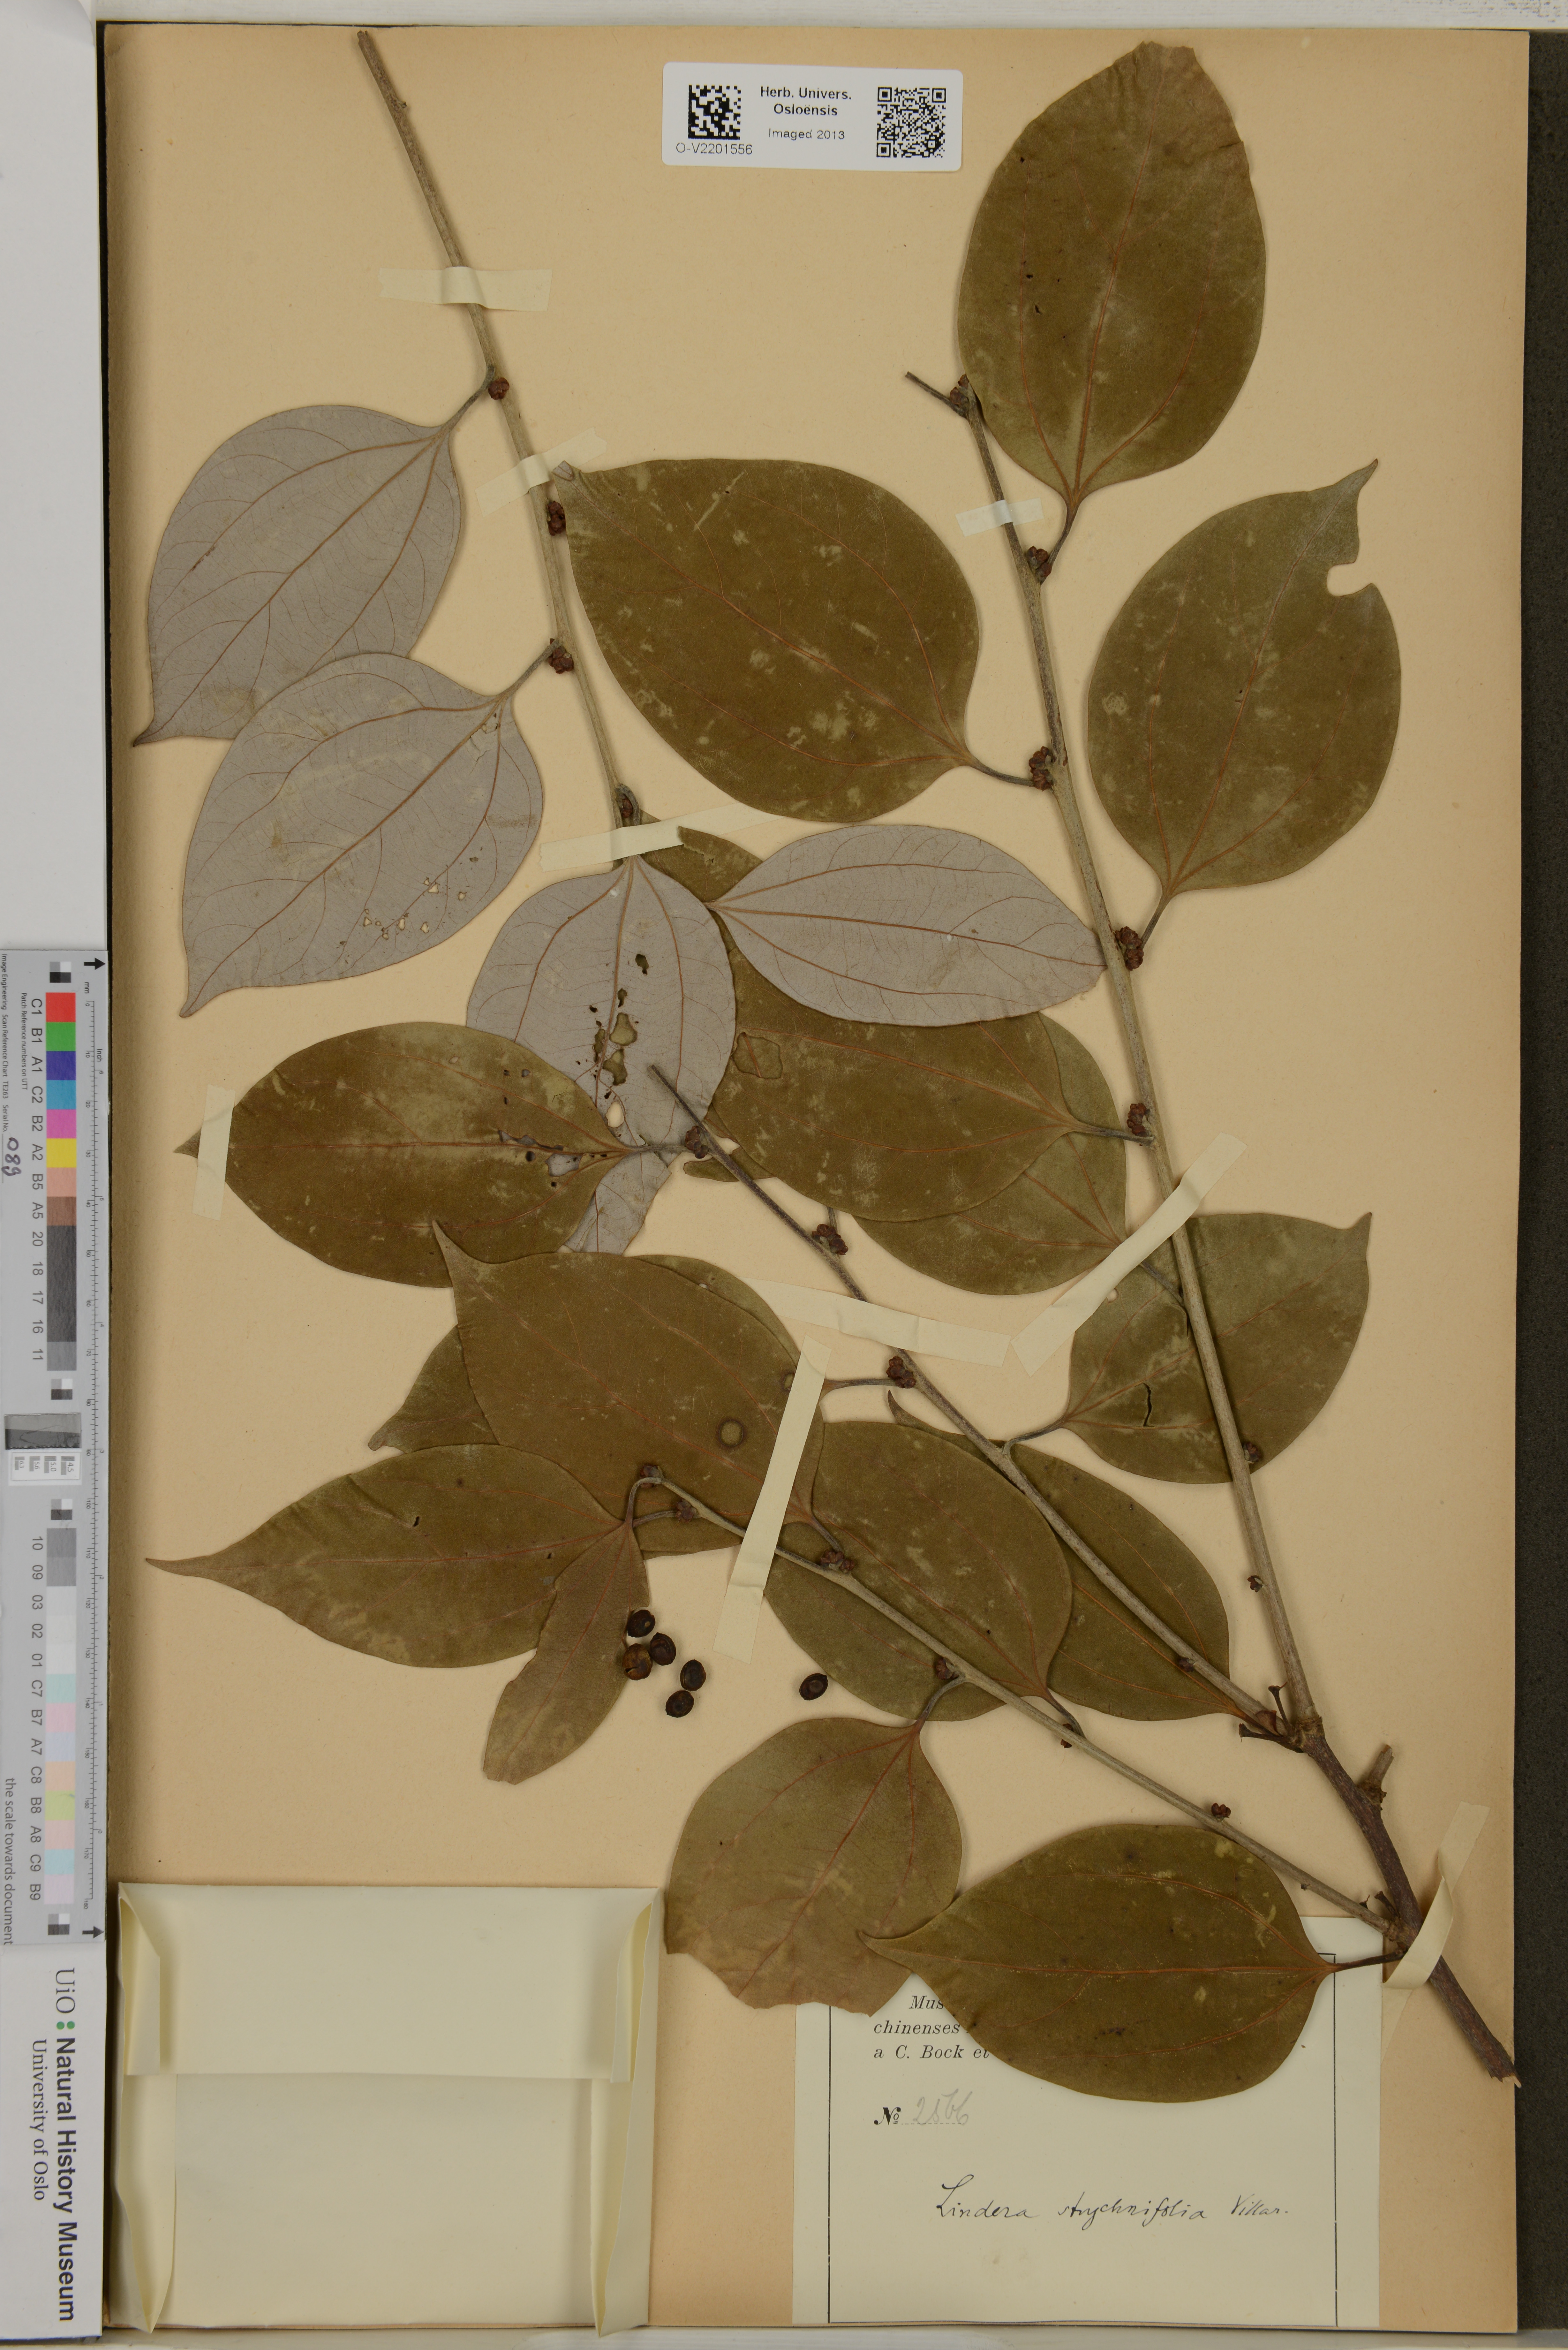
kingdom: Plantae
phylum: Tracheophyta
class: Magnoliopsida
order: Laurales
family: Lauraceae
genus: Lindera
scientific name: Lindera
